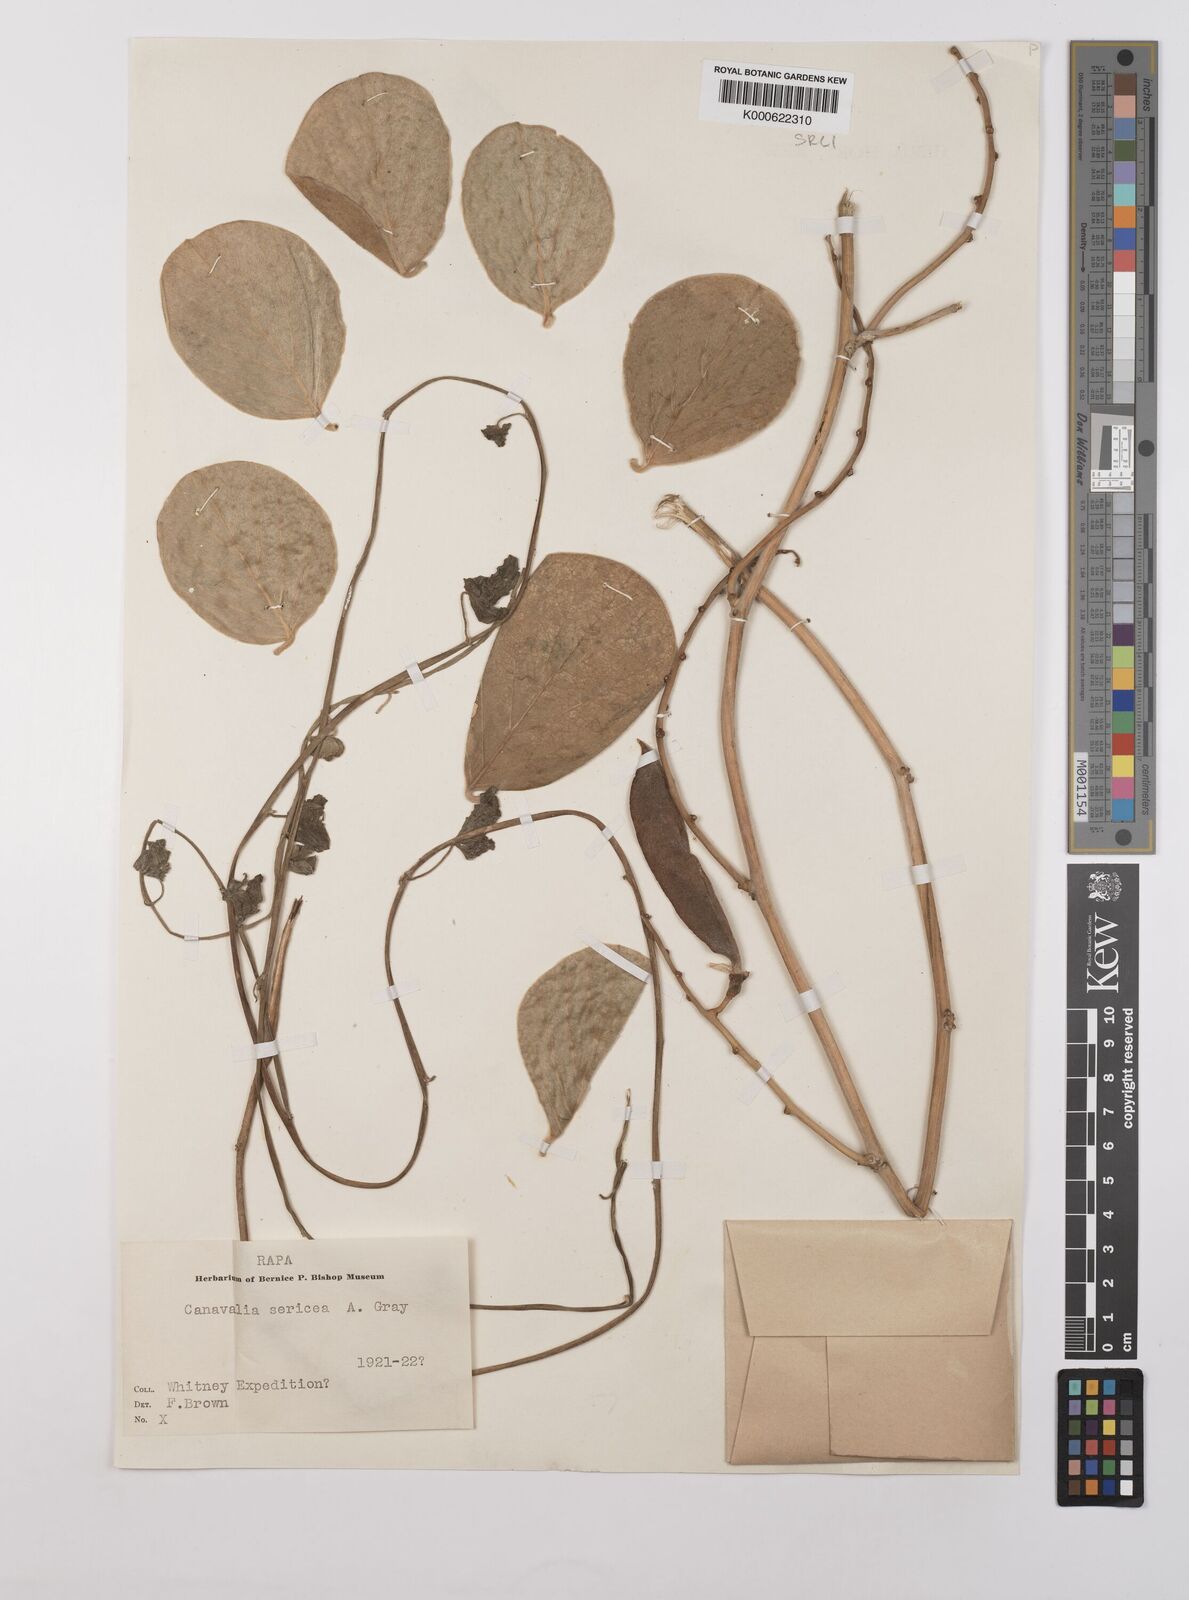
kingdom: Plantae
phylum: Tracheophyta
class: Magnoliopsida
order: Fabales
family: Fabaceae
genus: Canavalia
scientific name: Canavalia sericea
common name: Silky jackbean
